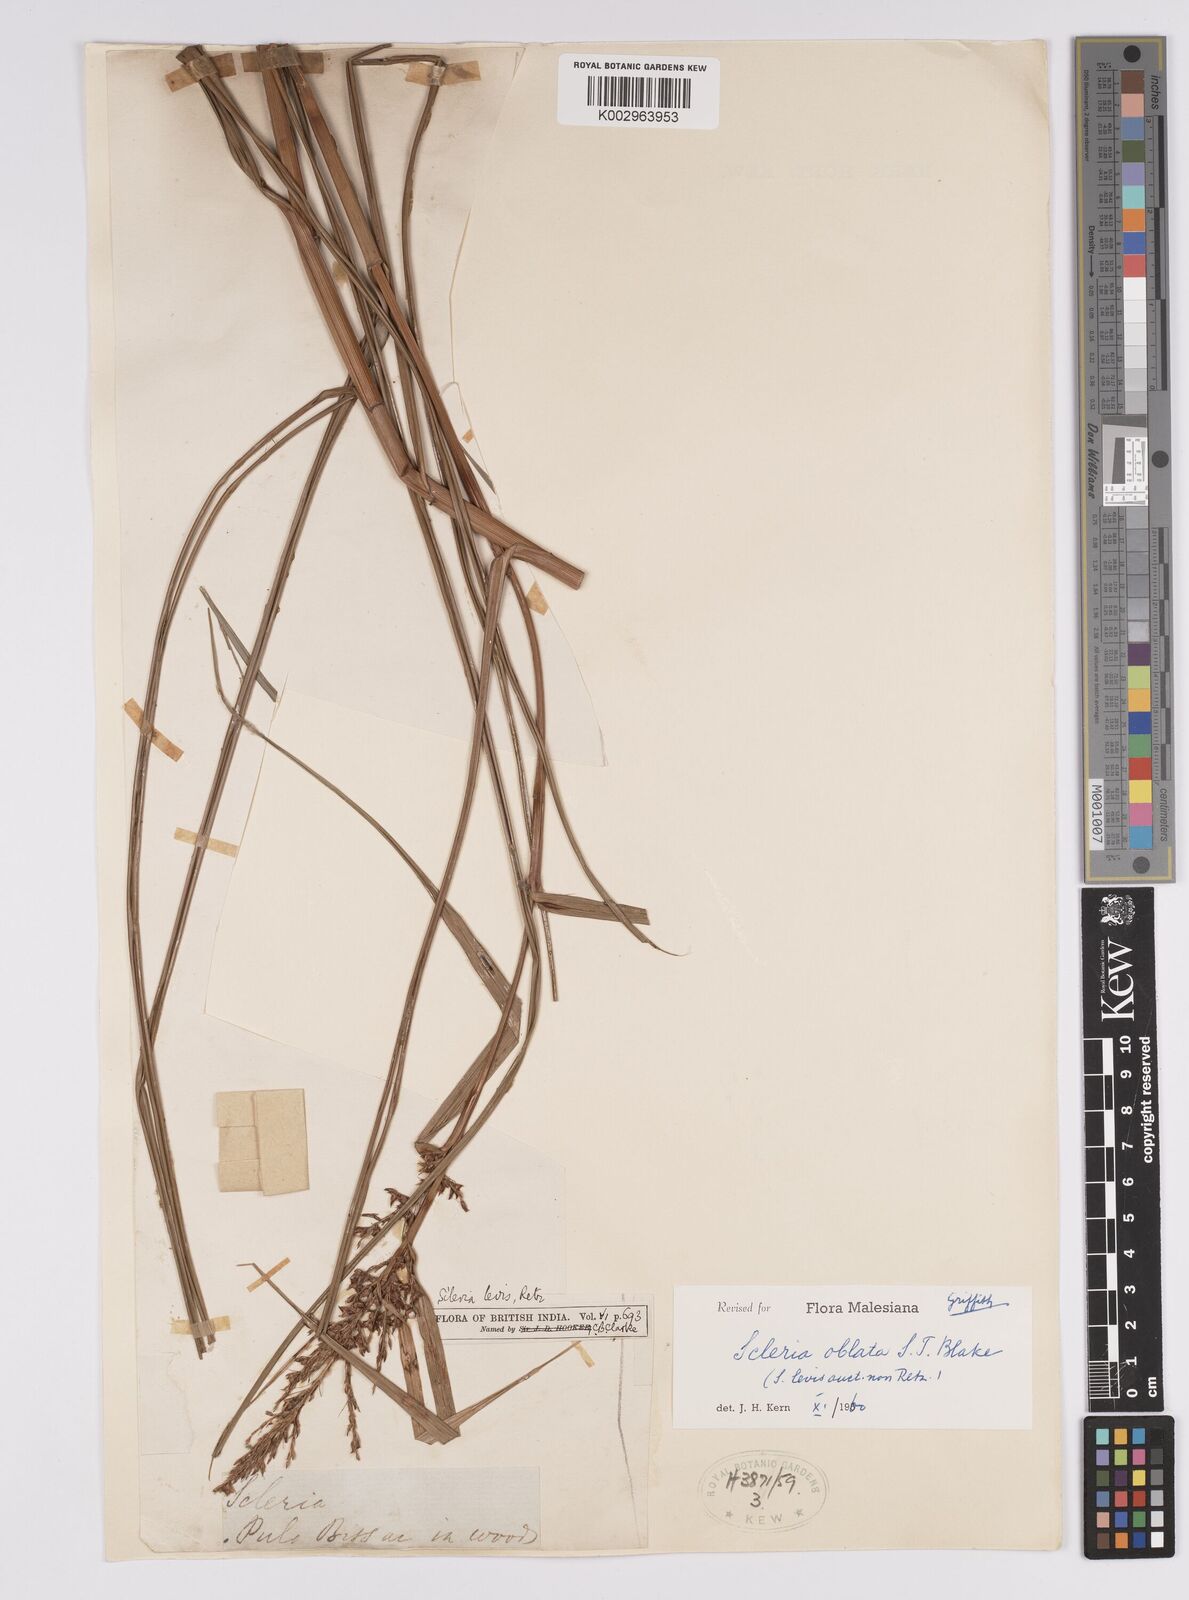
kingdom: Plantae
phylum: Tracheophyta
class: Liliopsida
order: Poales
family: Cyperaceae
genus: Scleria
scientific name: Scleria oblata
